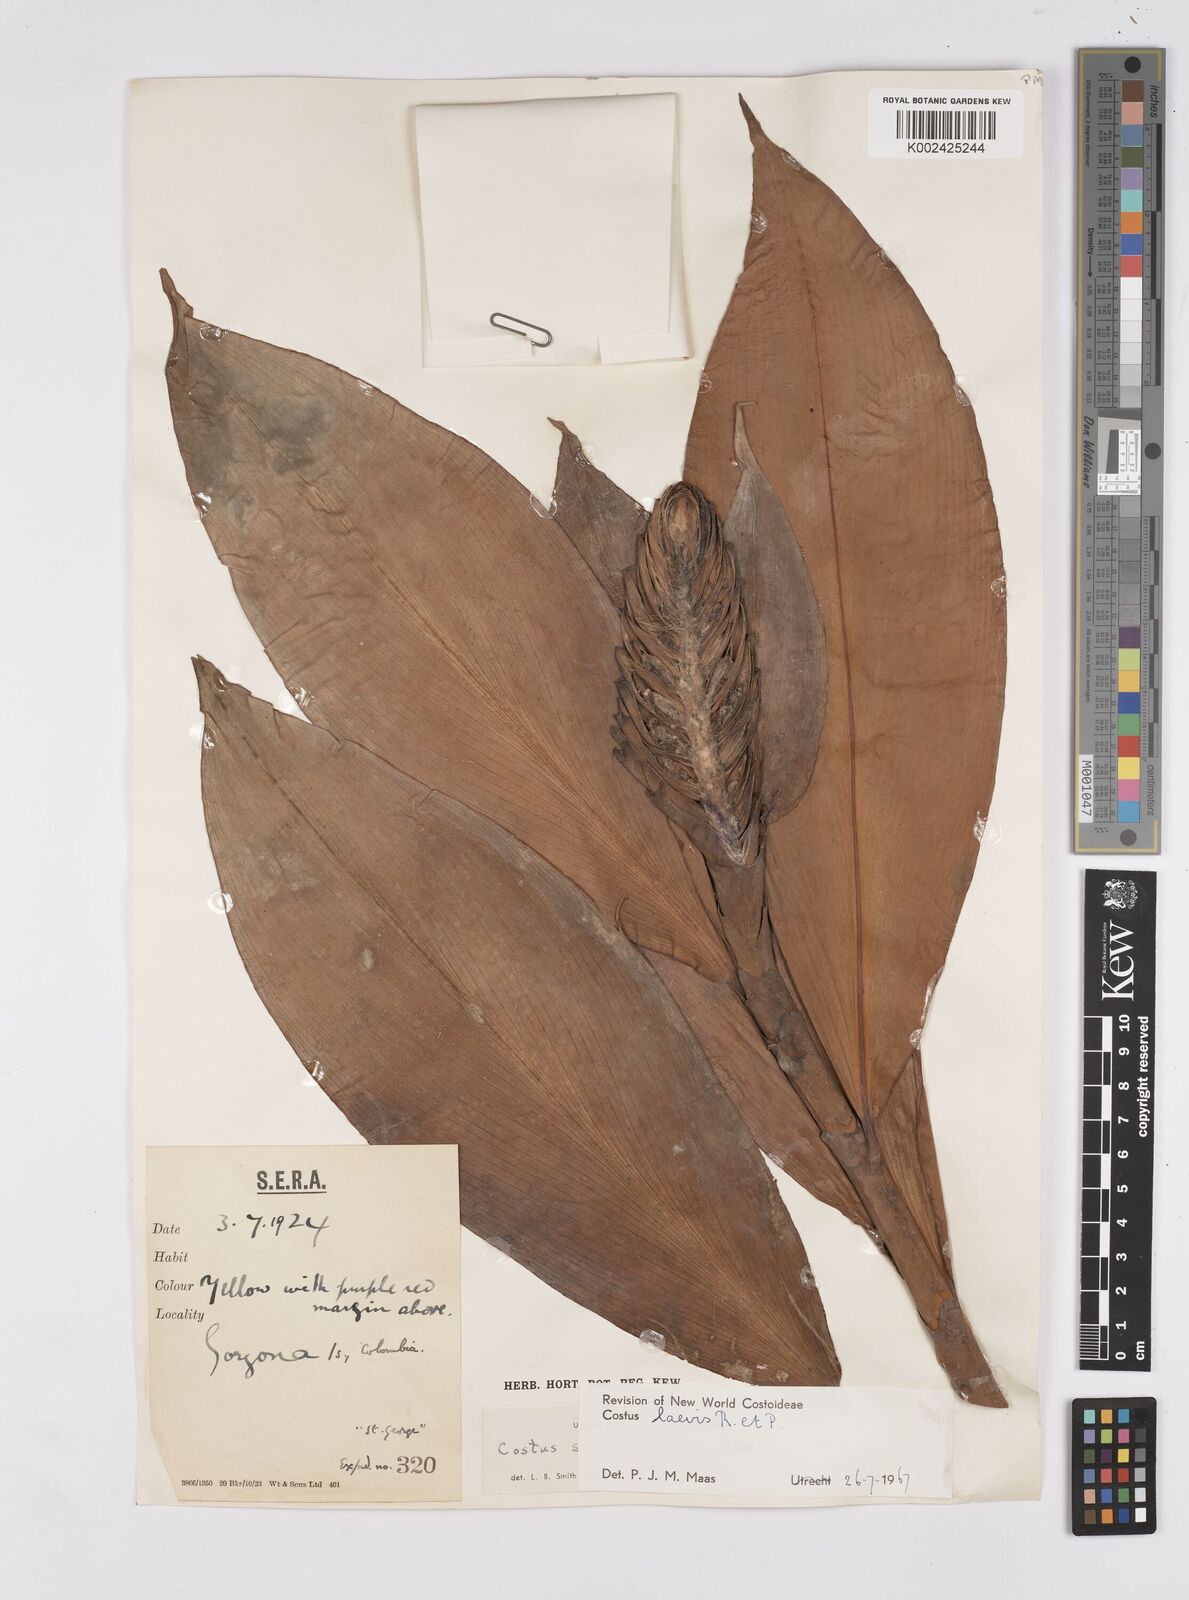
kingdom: Plantae
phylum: Tracheophyta
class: Liliopsida
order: Zingiberales
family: Costaceae
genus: Costus
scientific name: Costus laevis
